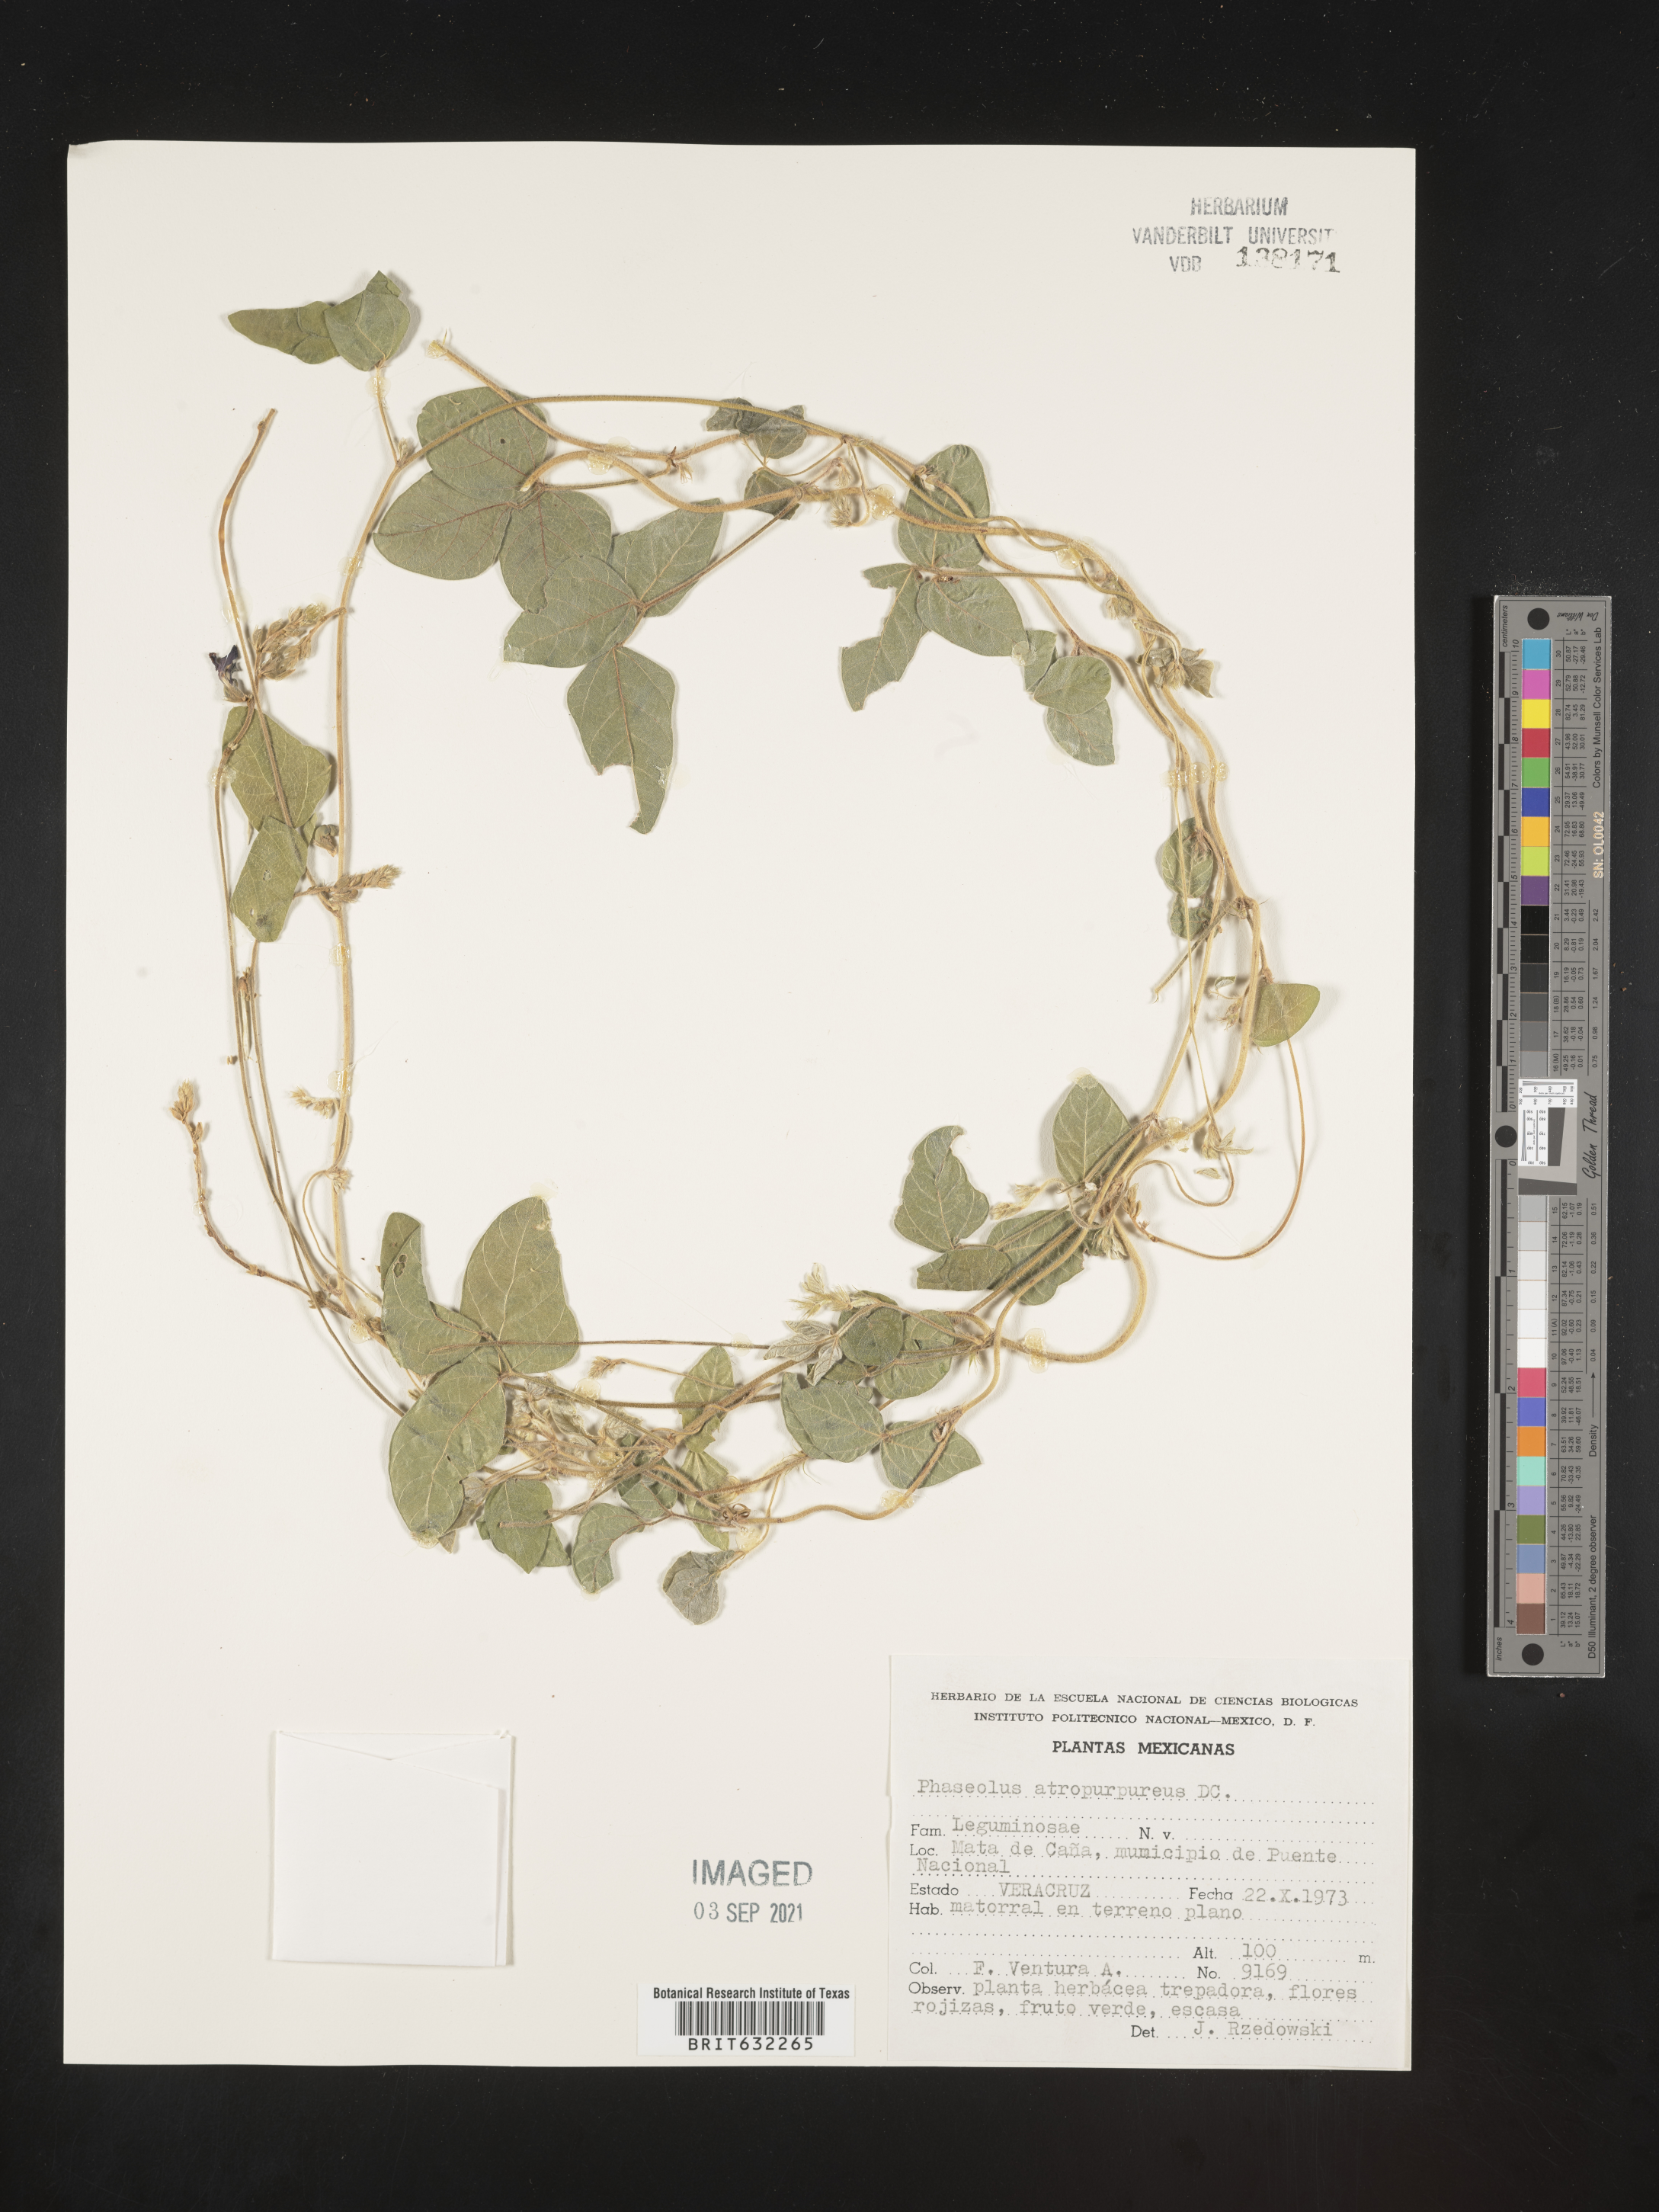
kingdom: Plantae
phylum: Tracheophyta
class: Magnoliopsida
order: Fabales
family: Fabaceae
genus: Phaseolus
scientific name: Phaseolus
